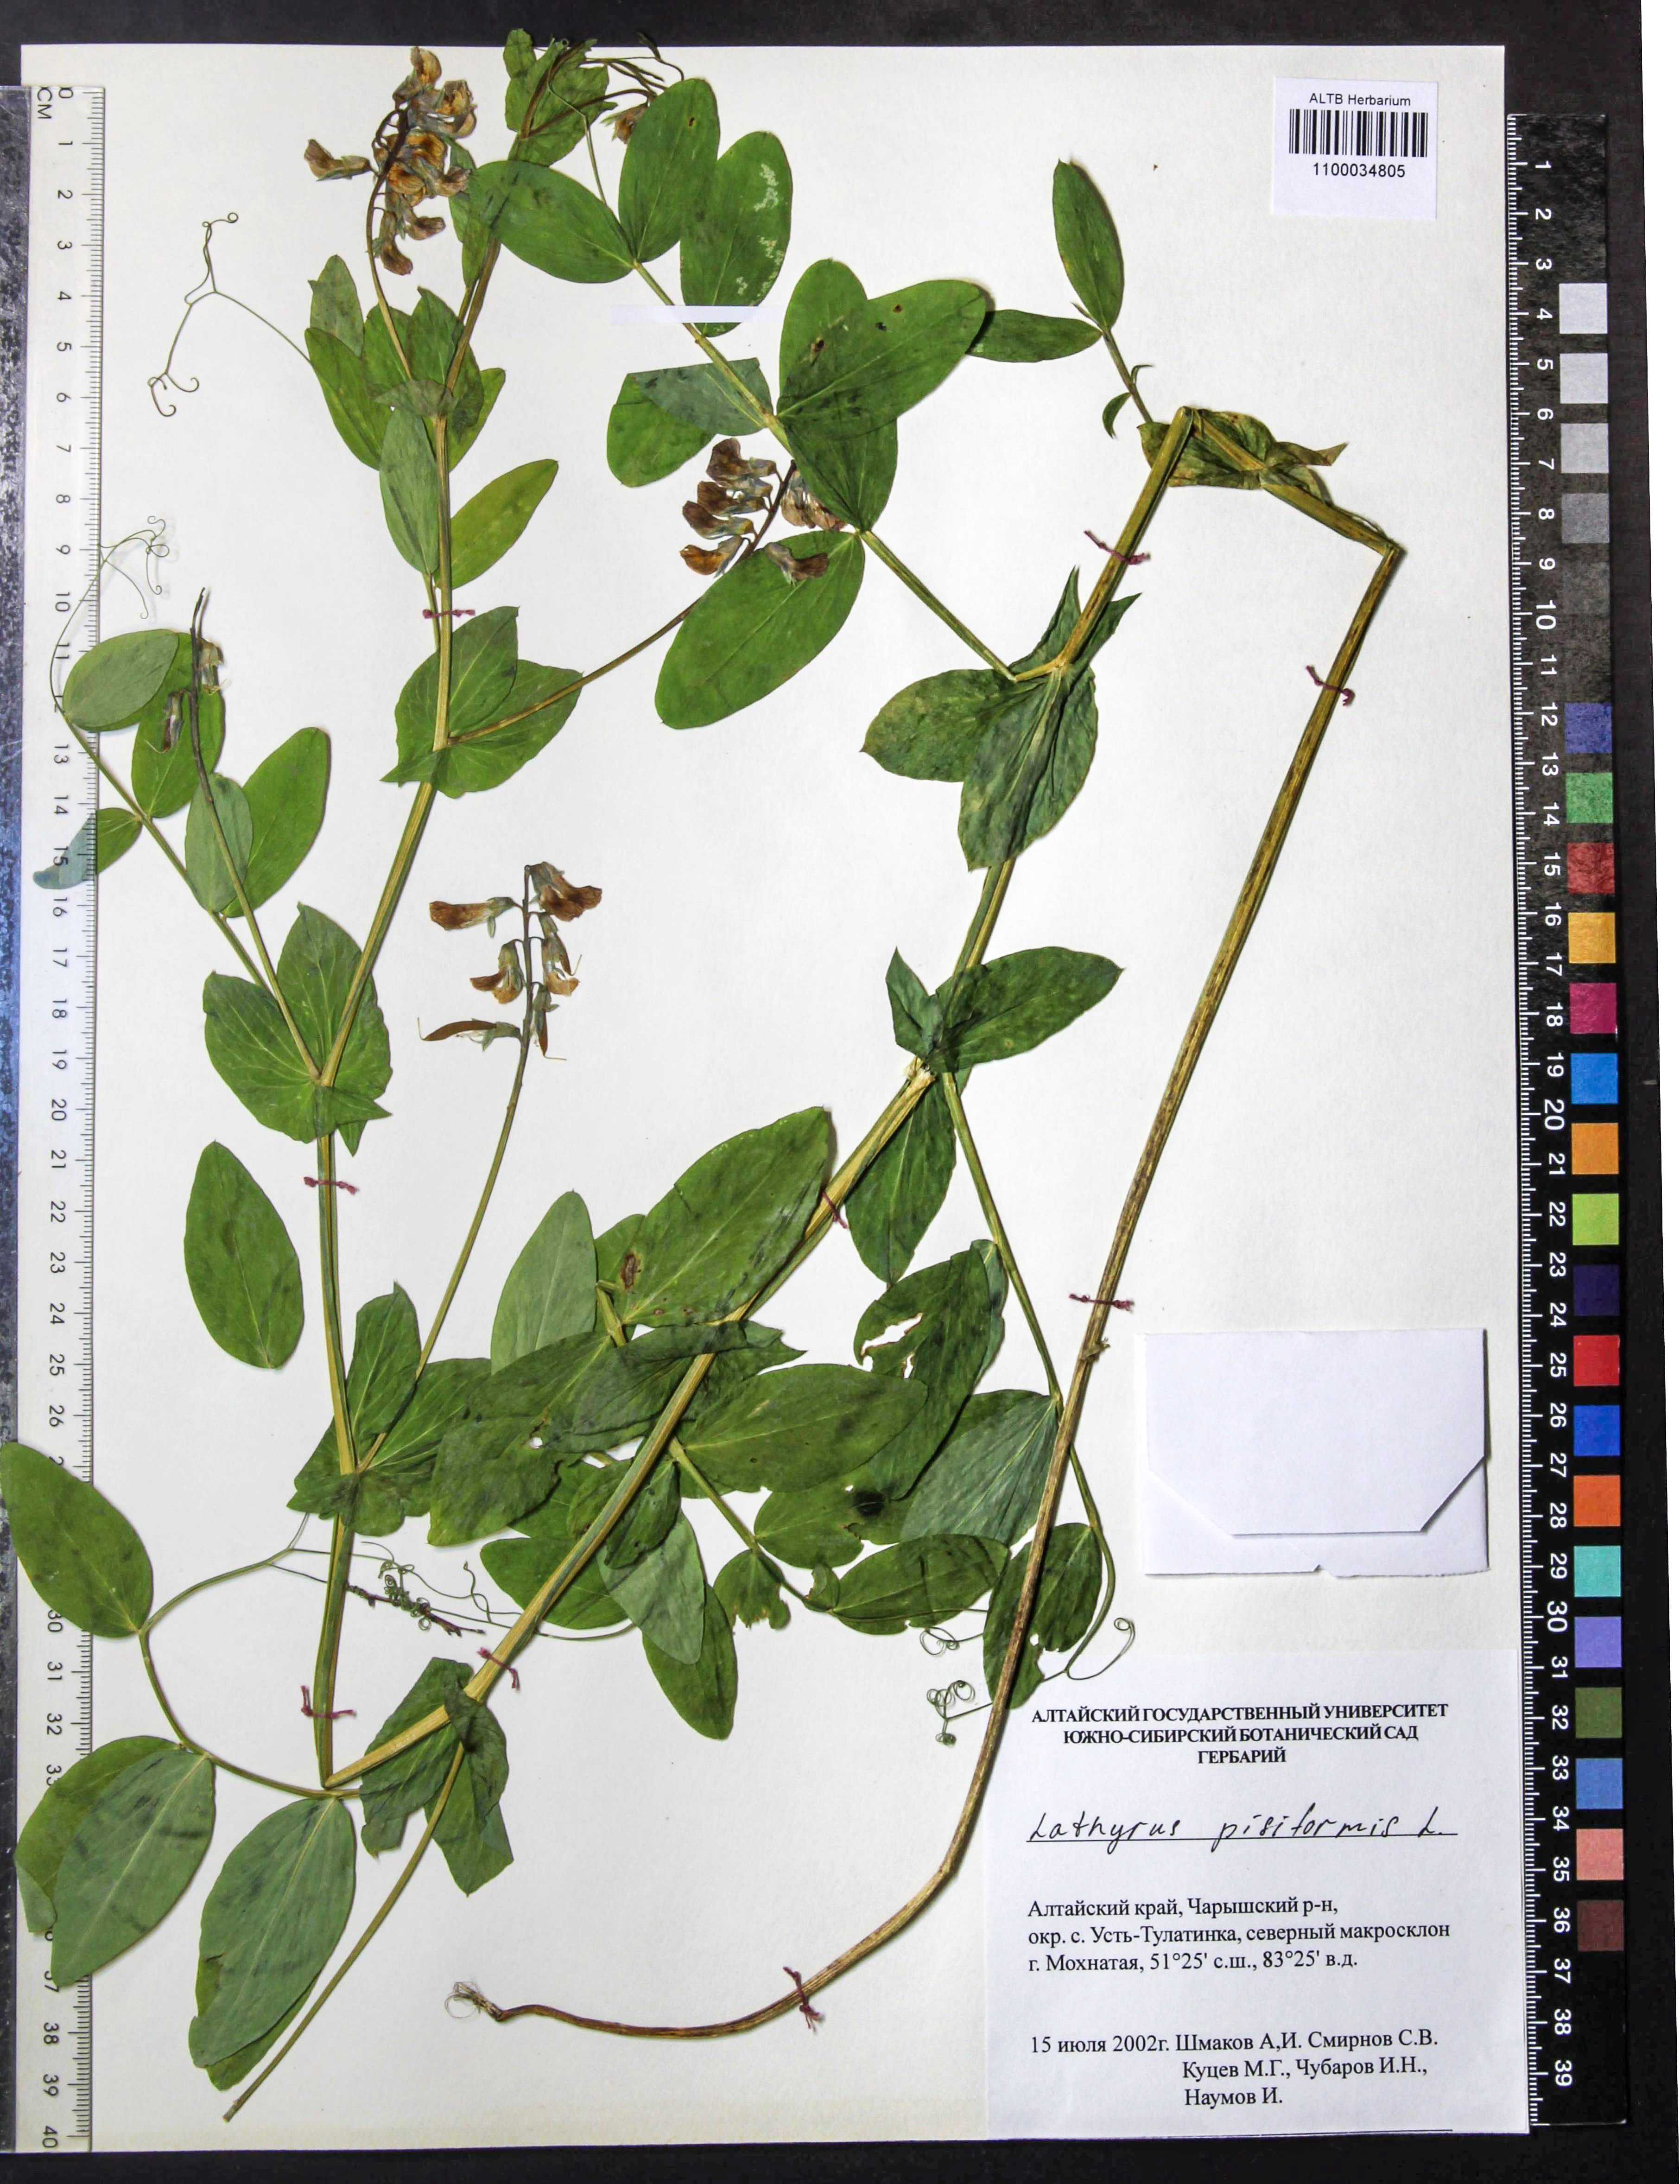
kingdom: Plantae
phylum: Tracheophyta
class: Magnoliopsida
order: Fabales
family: Fabaceae
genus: Lathyrus
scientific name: Lathyrus pisiformis
